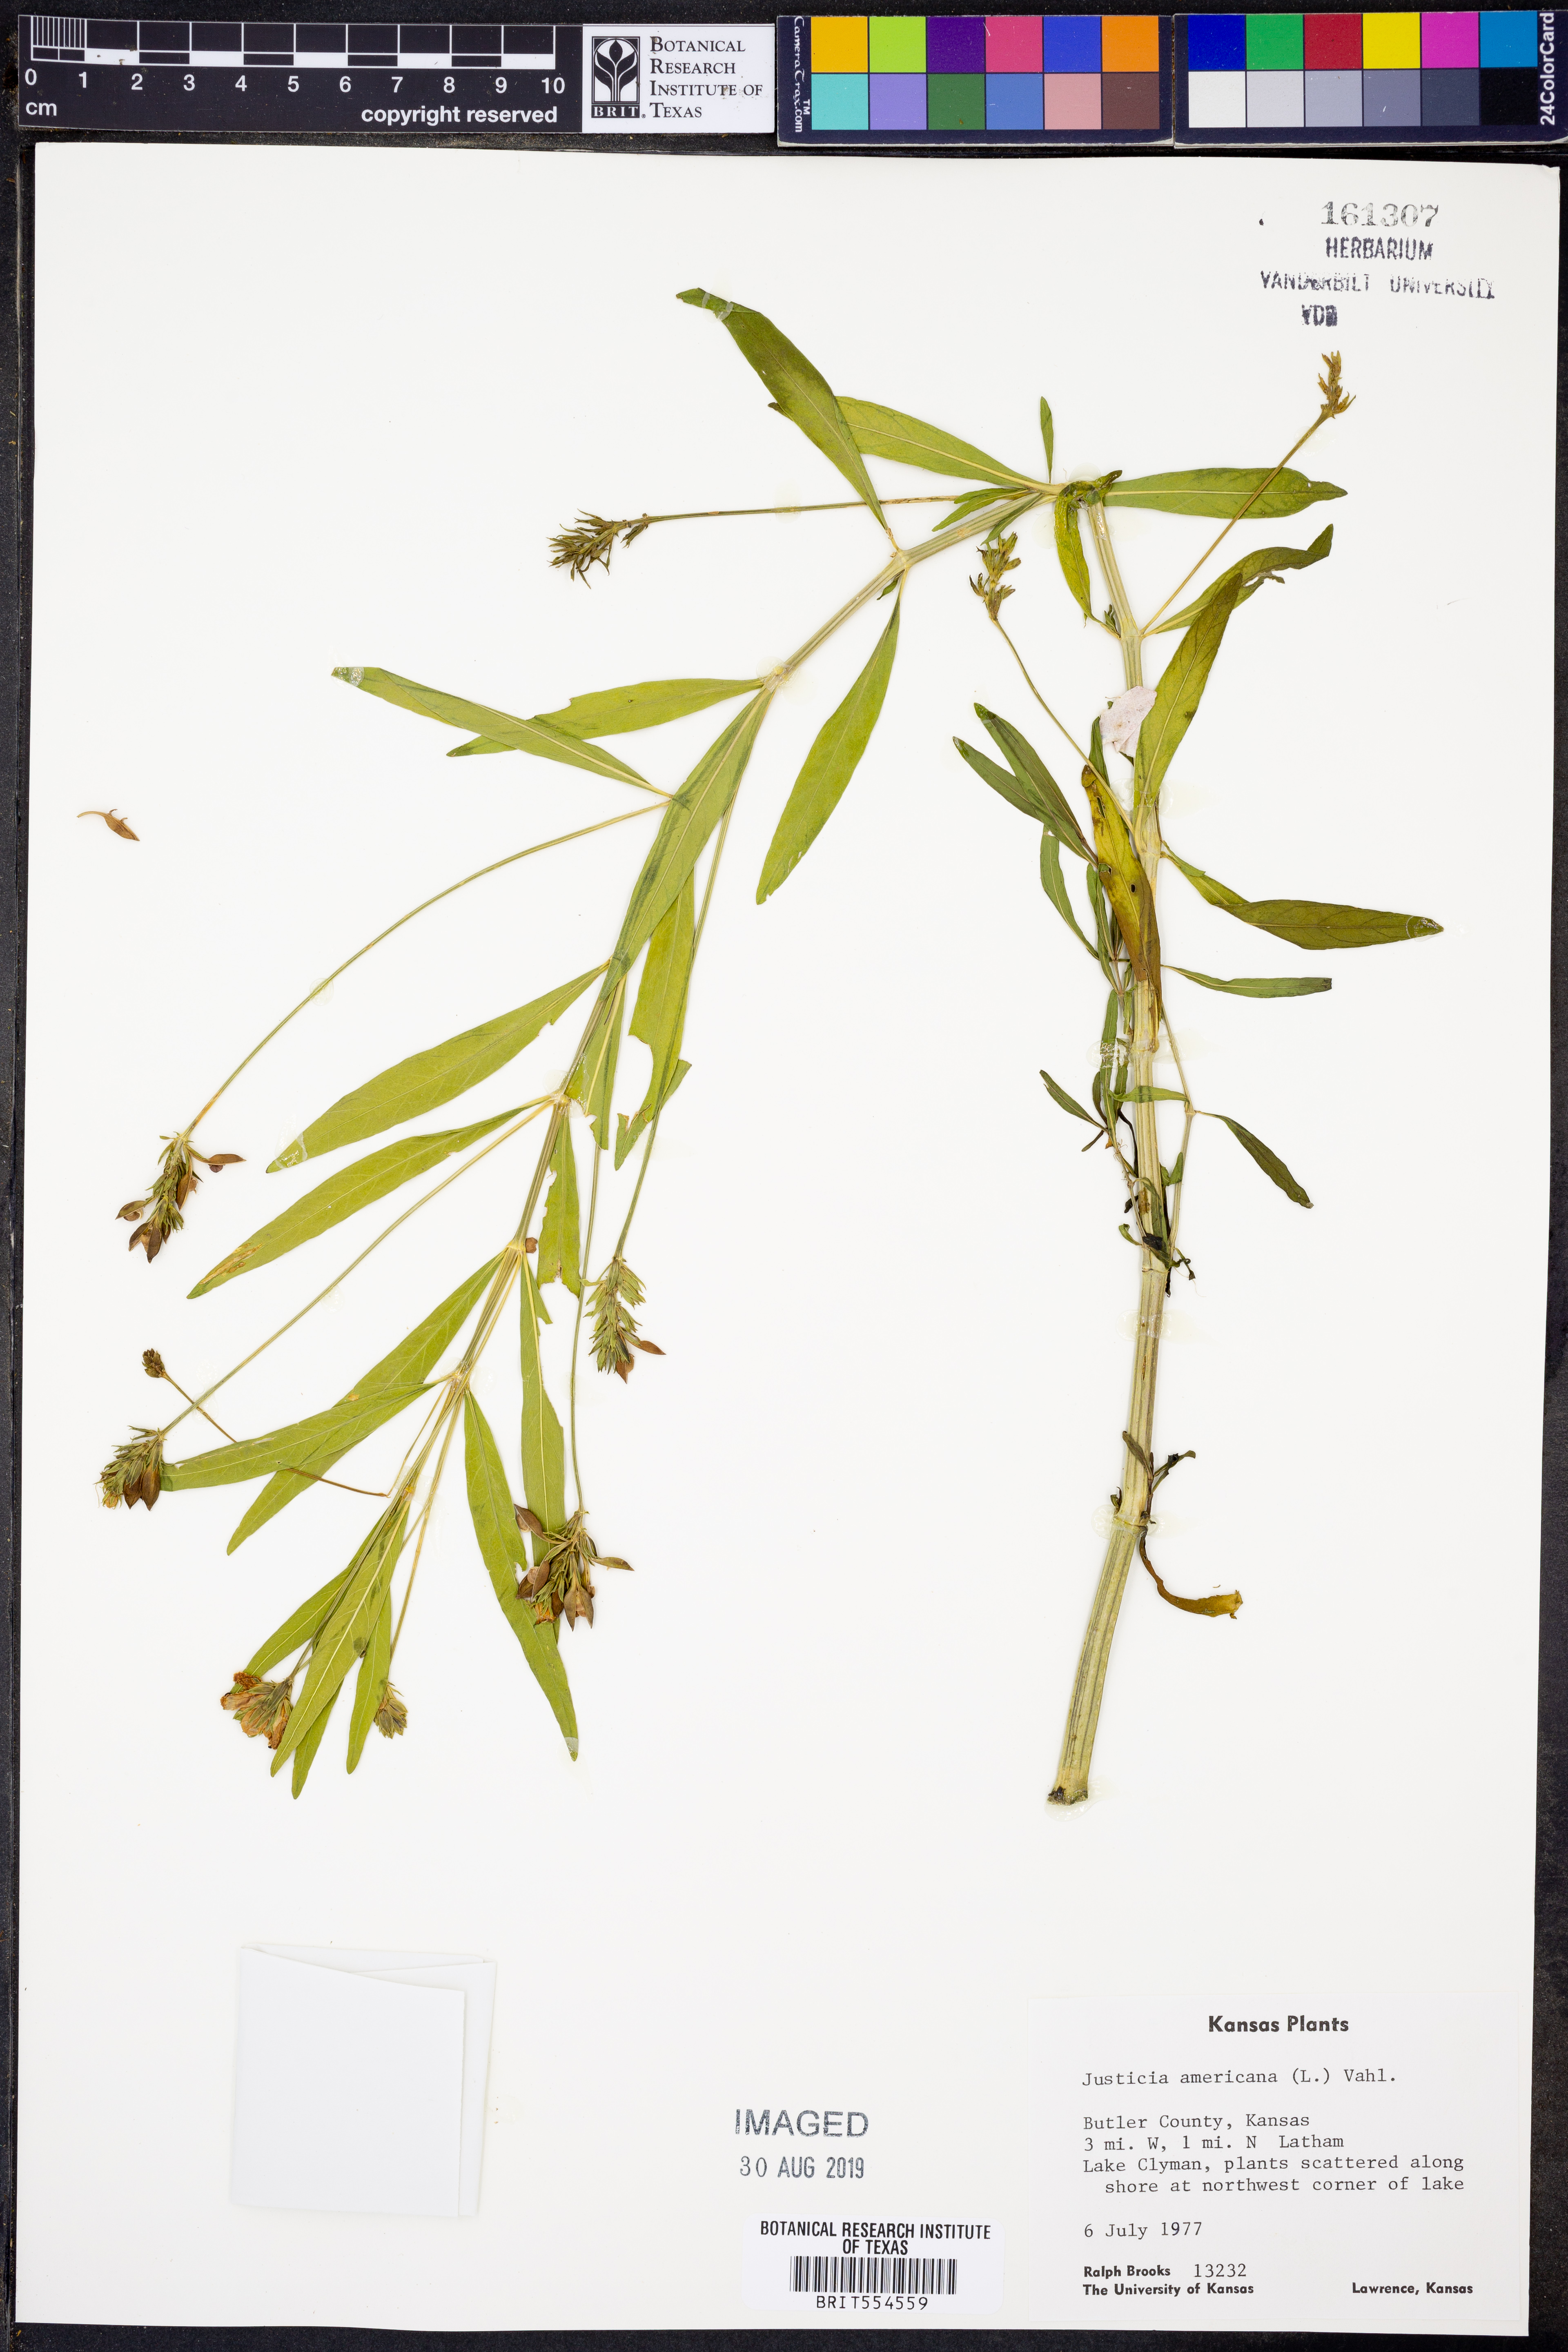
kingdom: Plantae
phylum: Tracheophyta
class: Magnoliopsida
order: Lamiales
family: Acanthaceae
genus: Dianthera
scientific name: Dianthera americana
